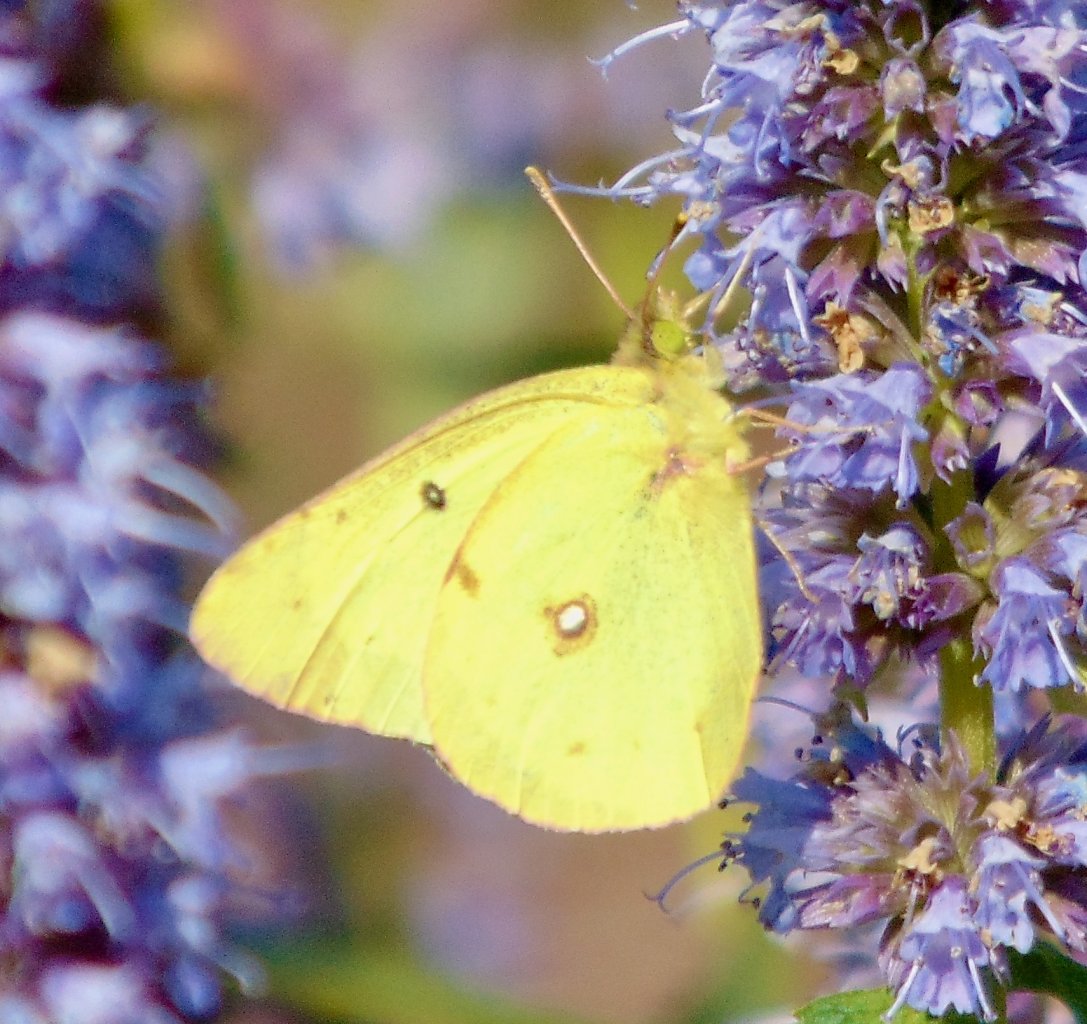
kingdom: Animalia
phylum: Arthropoda
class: Insecta
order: Lepidoptera
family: Pieridae
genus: Colias
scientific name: Colias philodice
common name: Clouded Sulphur
